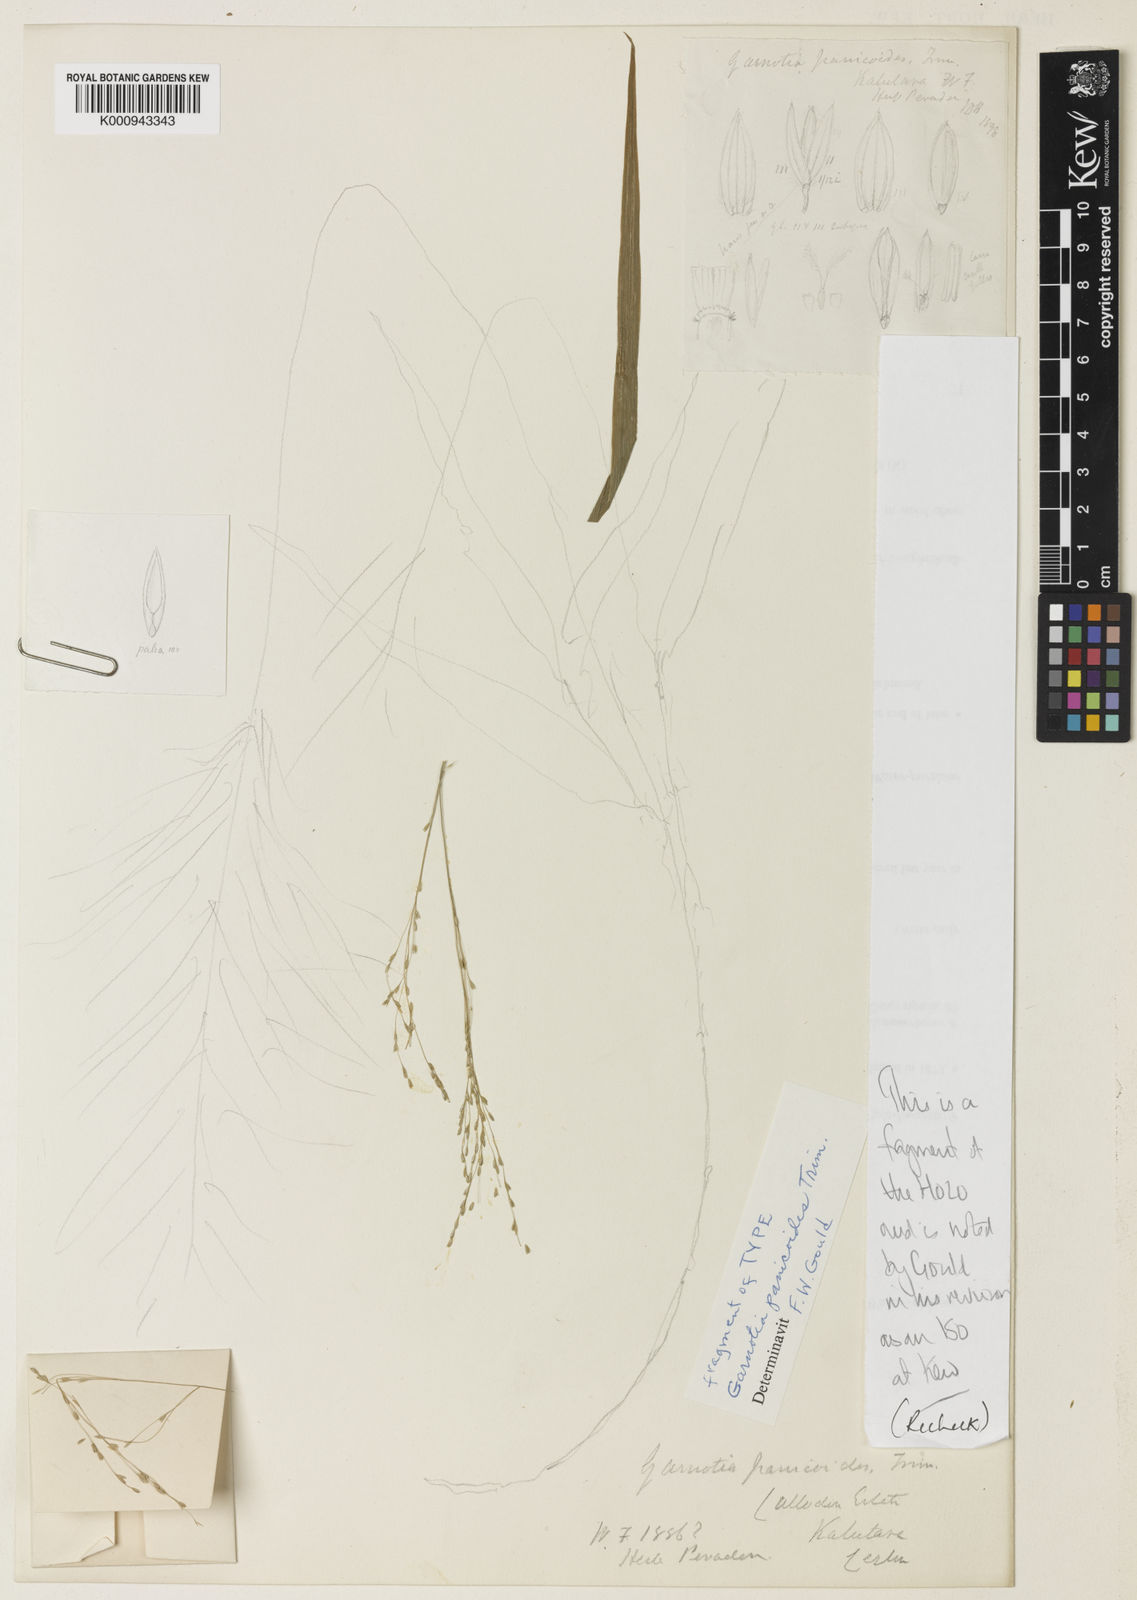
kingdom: Plantae
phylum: Tracheophyta
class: Liliopsida
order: Poales
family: Poaceae
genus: Garnotia
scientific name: Garnotia panicoides
